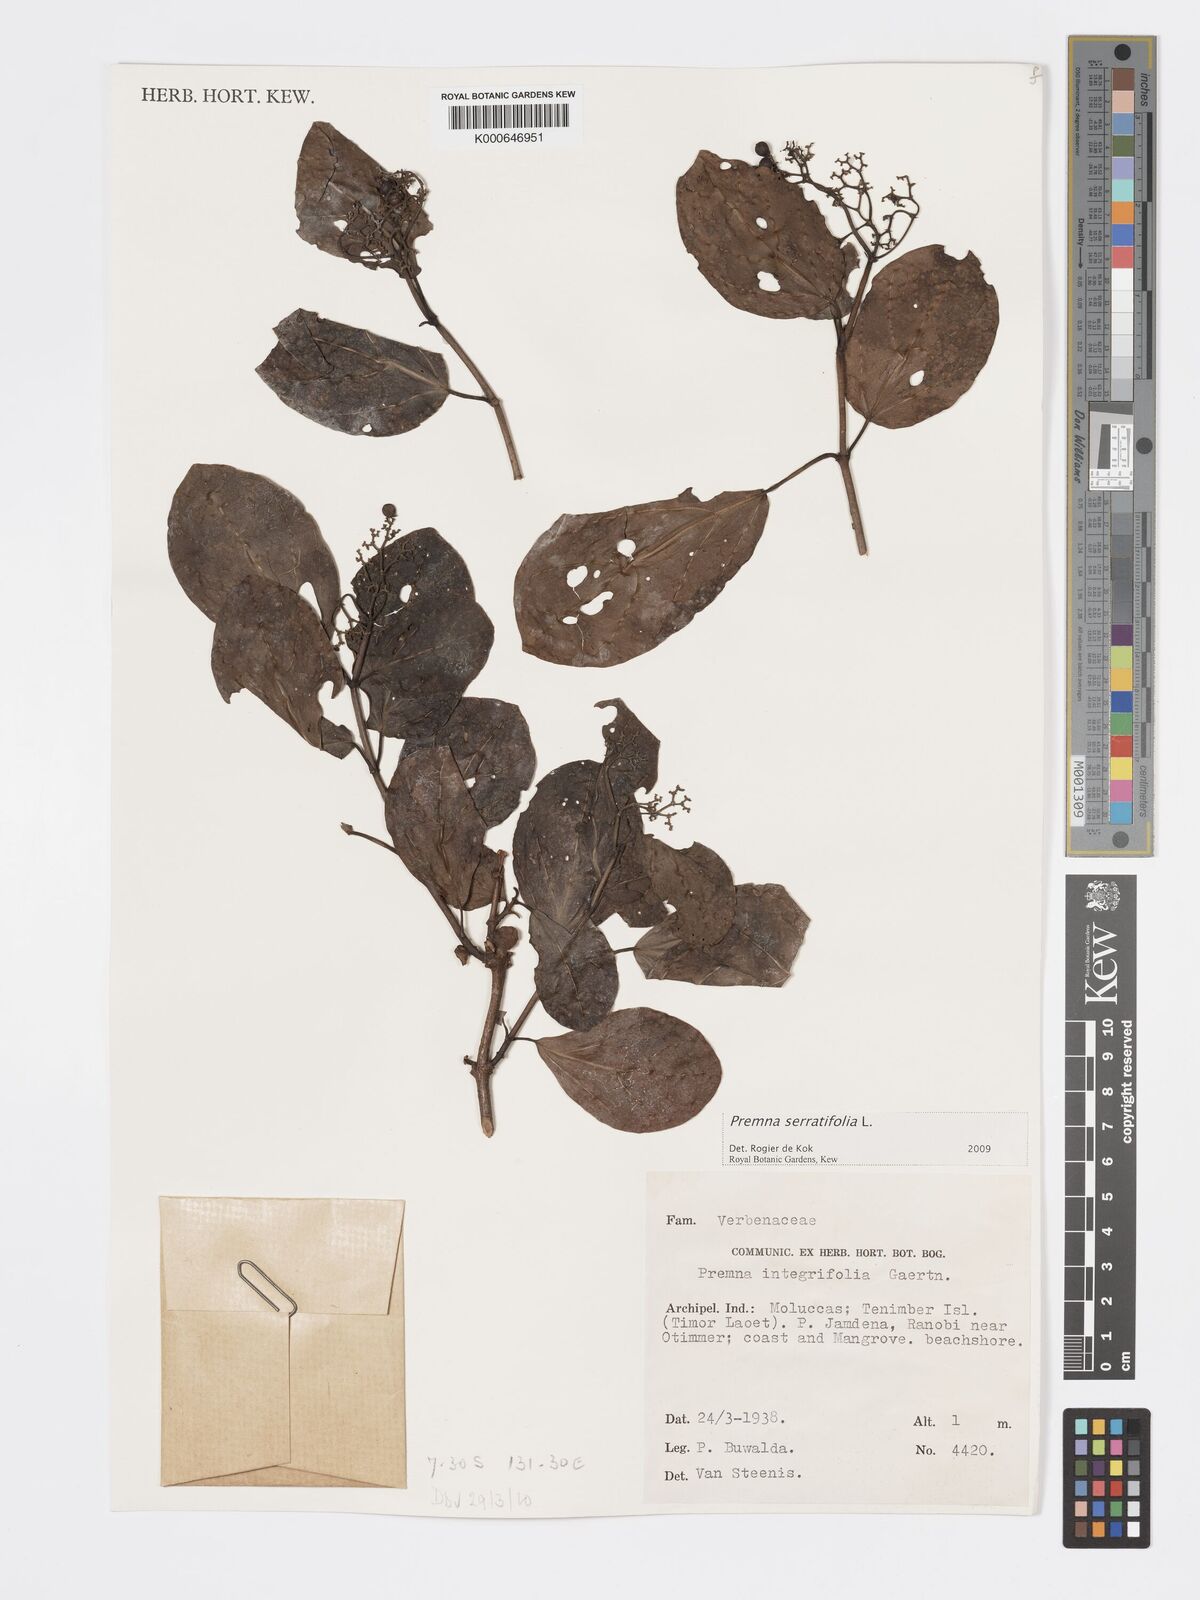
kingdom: Plantae
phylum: Tracheophyta
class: Magnoliopsida
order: Lamiales
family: Lamiaceae
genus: Premna
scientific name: Premna serratifolia
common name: Bastard guelder
